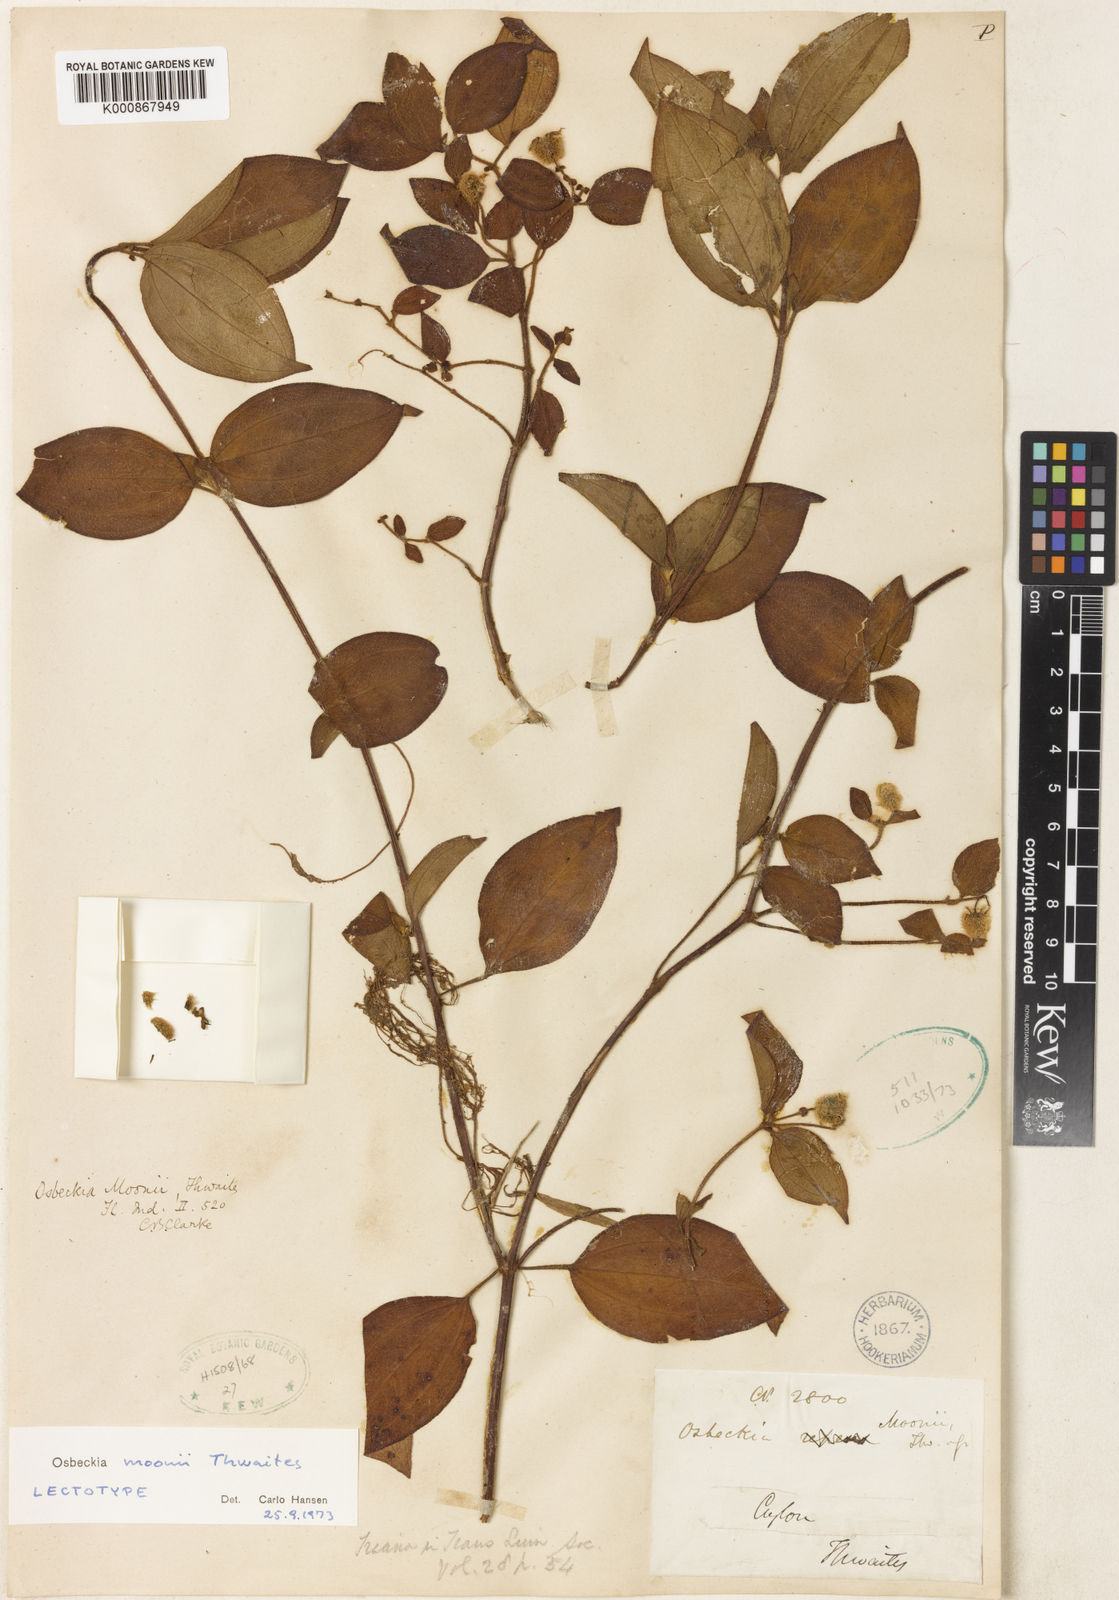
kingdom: Plantae
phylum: Tracheophyta
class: Magnoliopsida
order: Myrtales
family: Melastomataceae
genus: Osbeckia
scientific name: Osbeckia moonii
